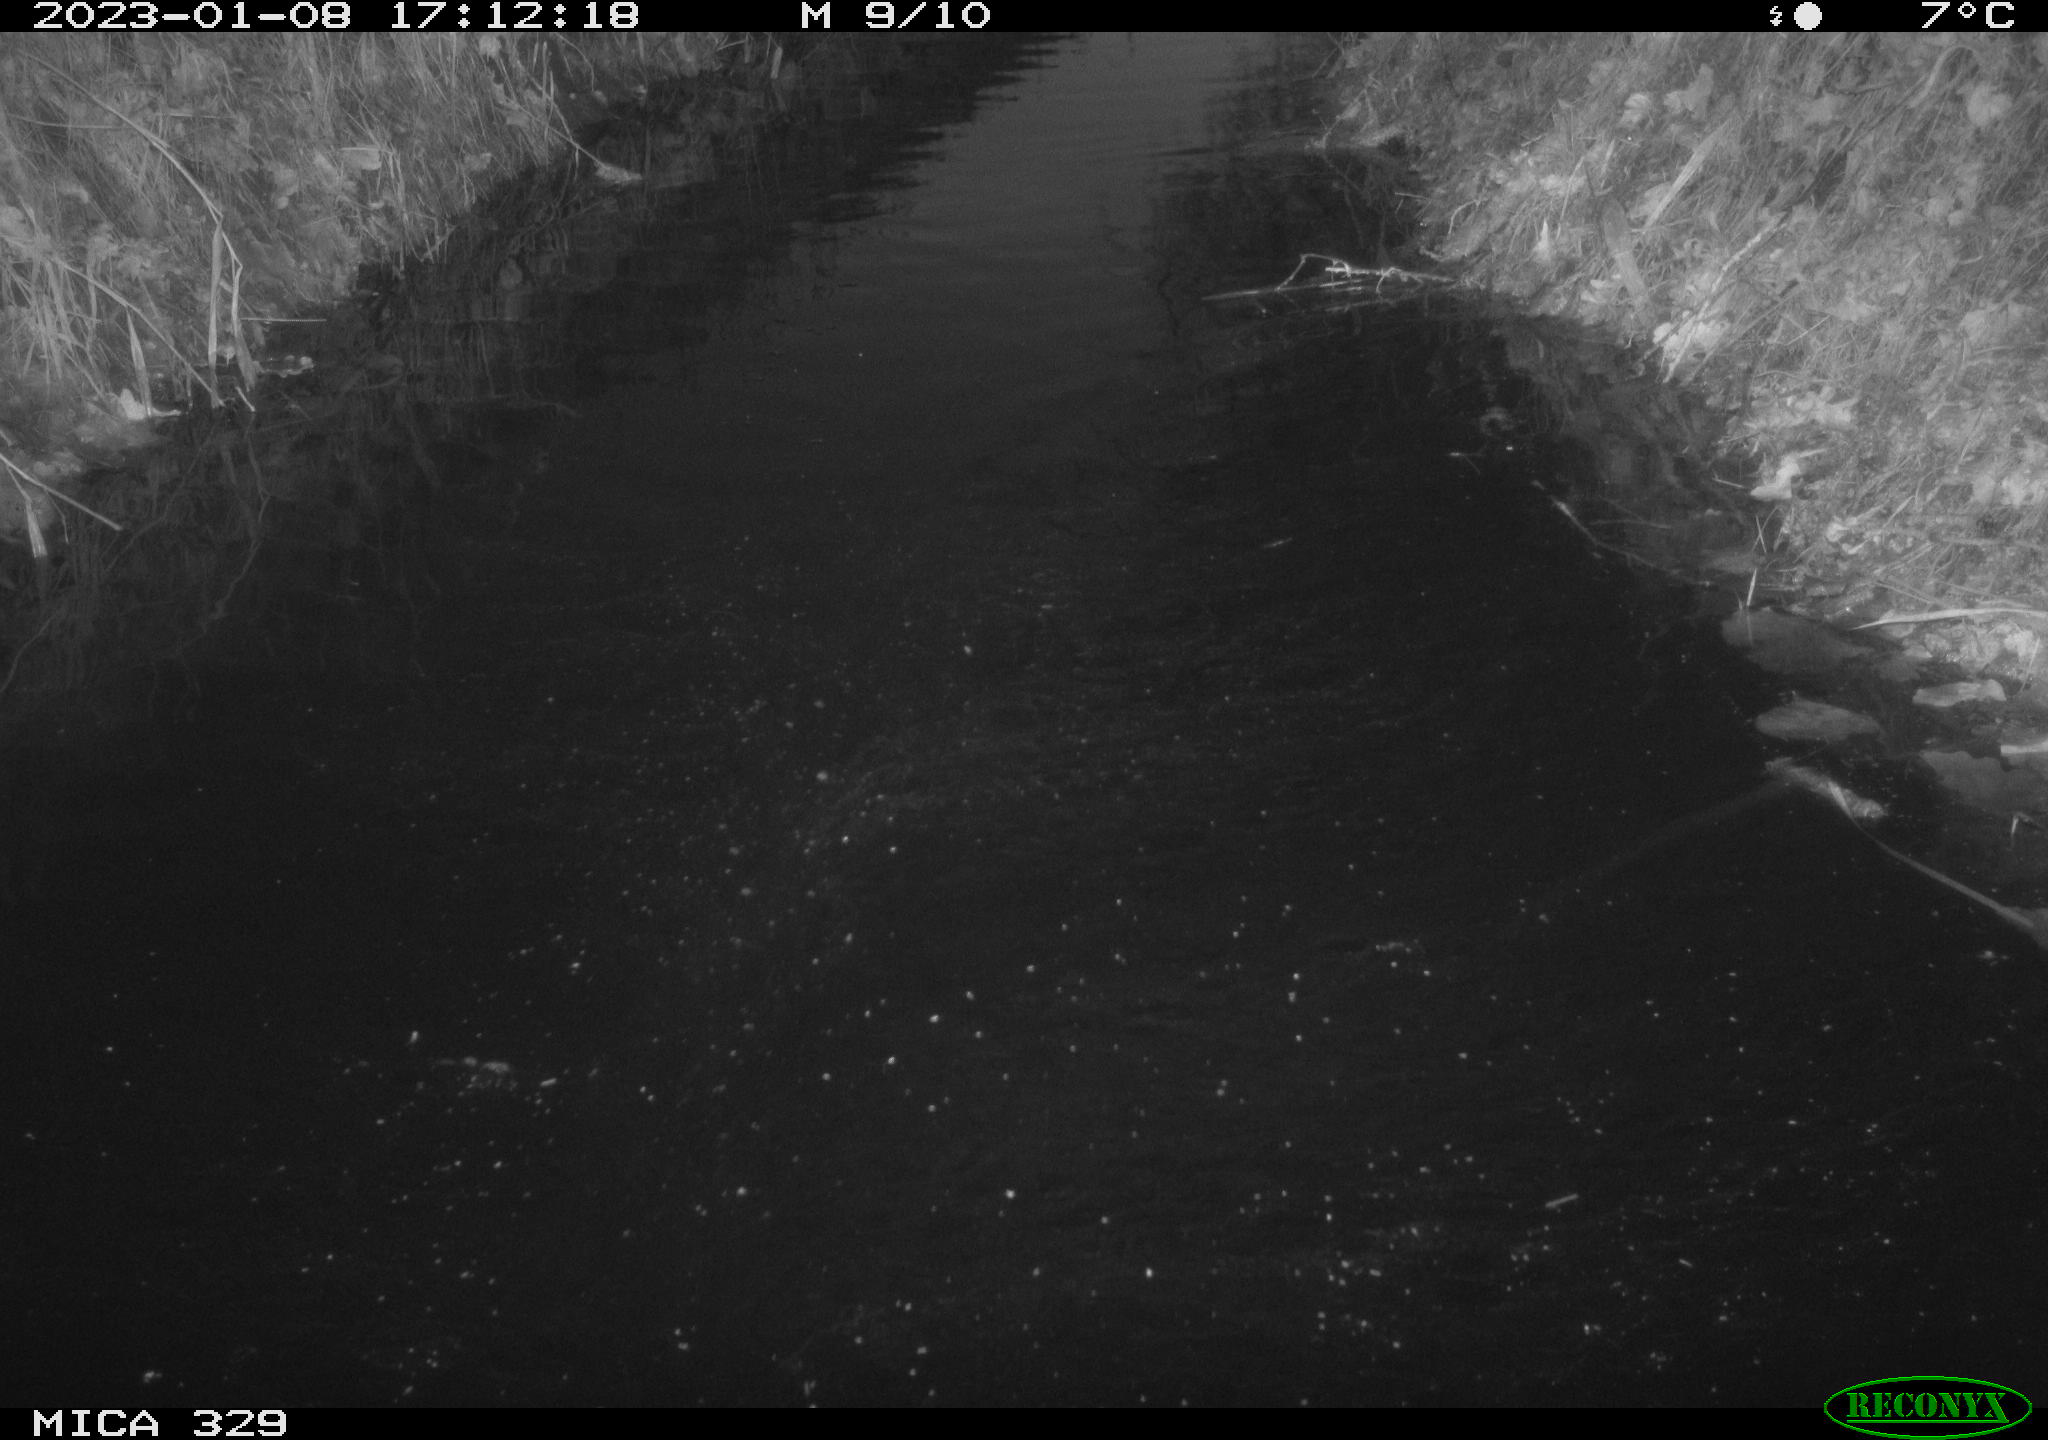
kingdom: Animalia
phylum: Chordata
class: Mammalia
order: Rodentia
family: Cricetidae
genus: Ondatra
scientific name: Ondatra zibethicus
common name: Muskrat
